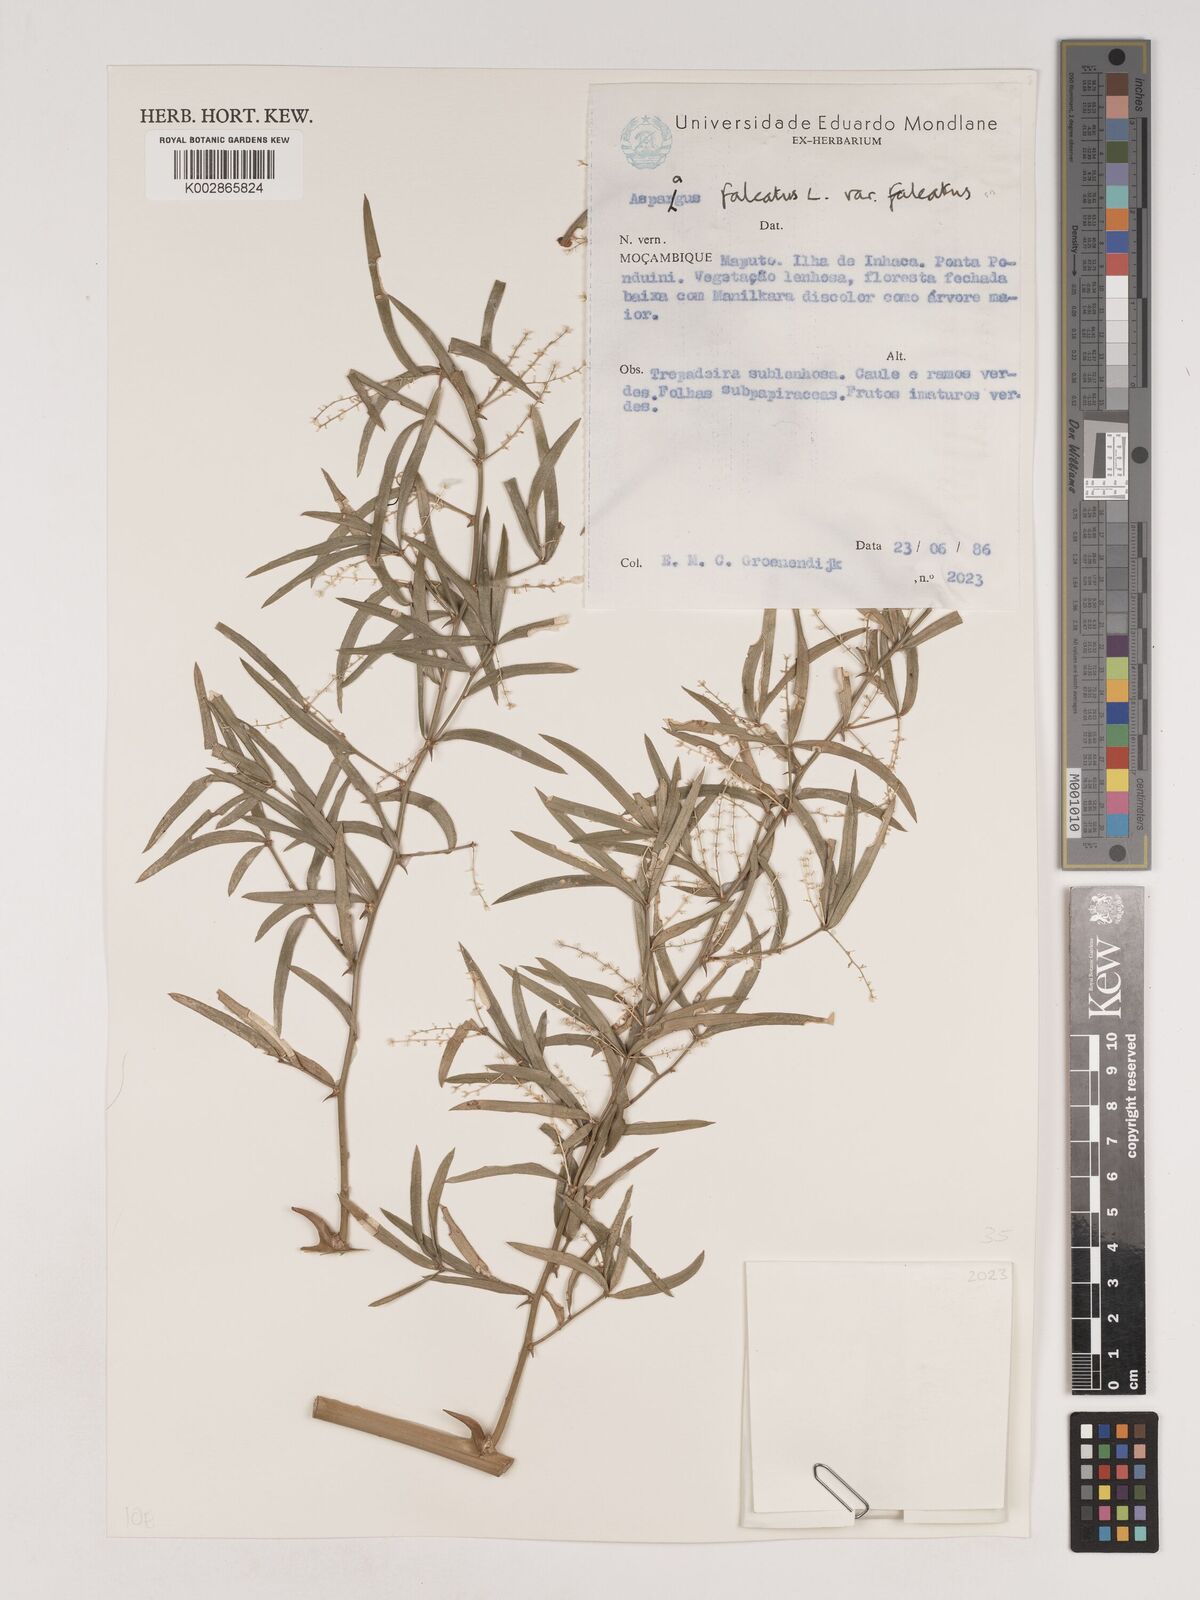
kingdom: Plantae
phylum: Tracheophyta
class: Liliopsida
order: Asparagales
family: Asparagaceae
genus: Asparagus
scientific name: Asparagus falcatus
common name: Asparagus
